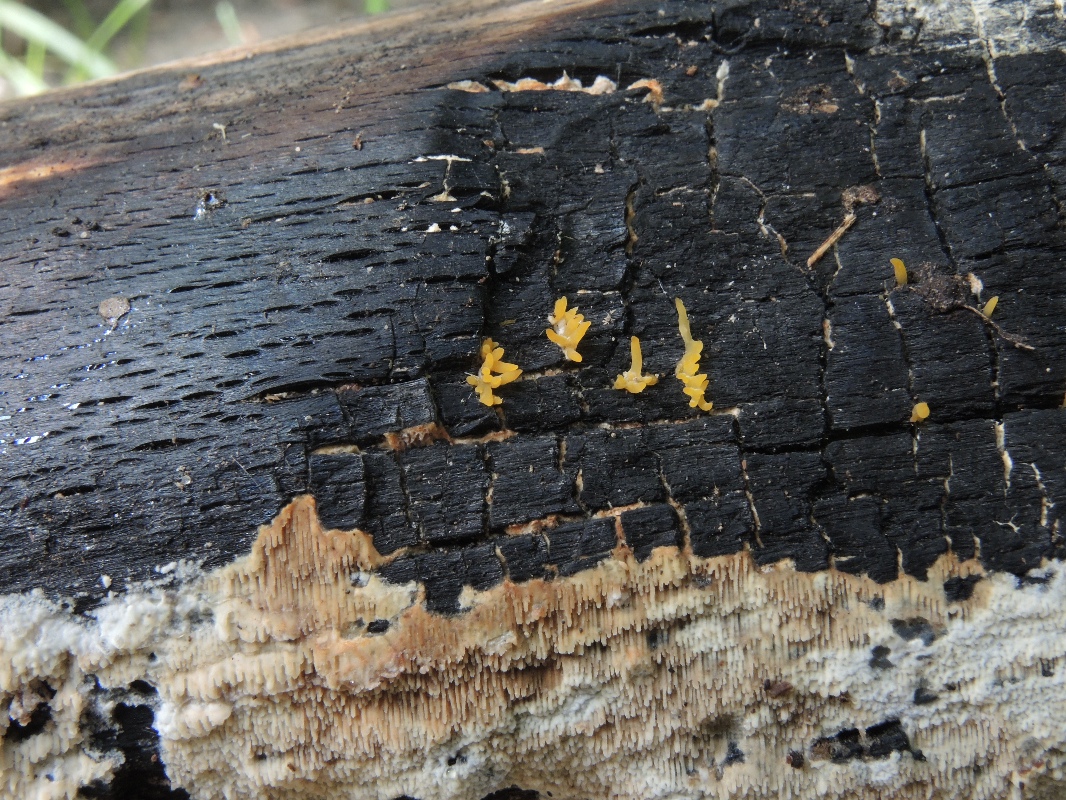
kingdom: Fungi
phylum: Basidiomycota
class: Dacrymycetes
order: Dacrymycetales
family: Dacrymycetaceae
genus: Calocera
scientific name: Calocera cornea
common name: liden guldgaffel
